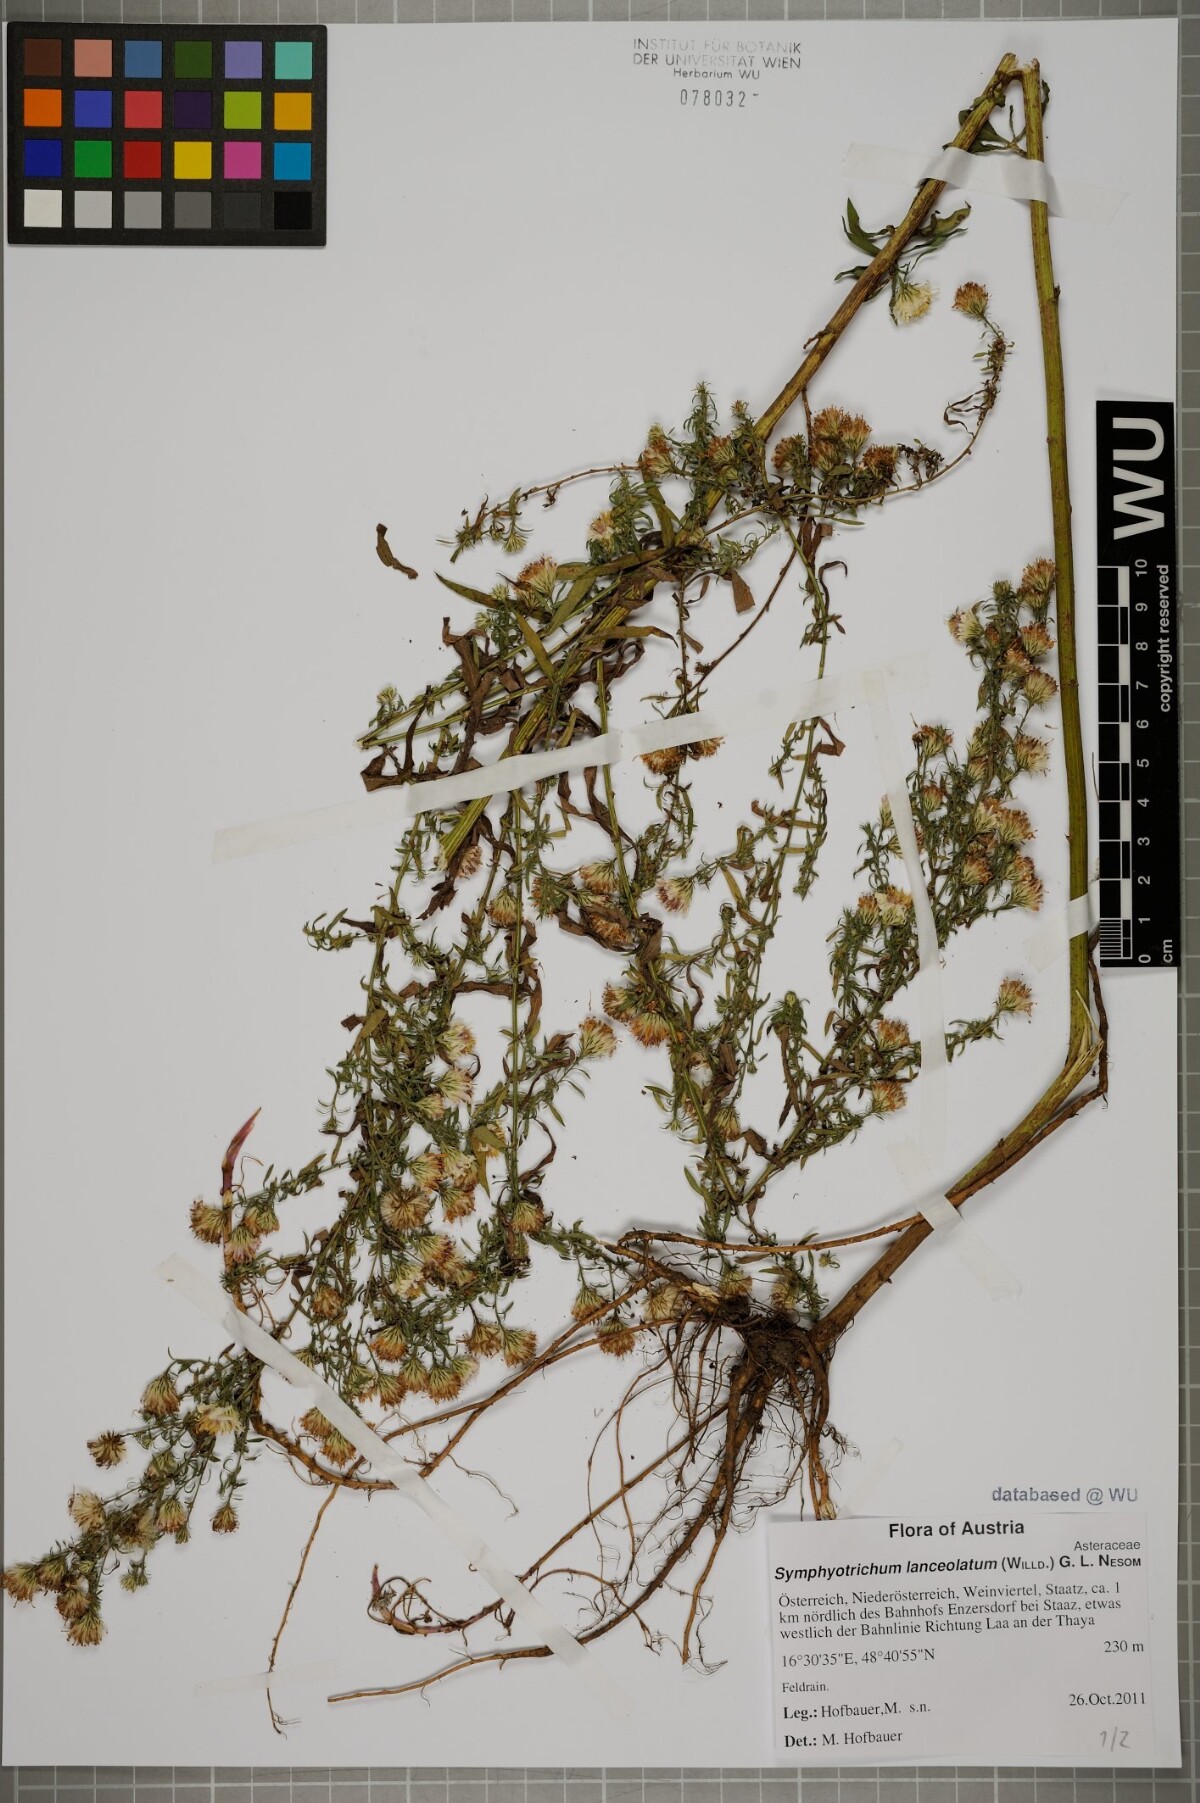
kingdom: Plantae
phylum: Tracheophyta
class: Magnoliopsida
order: Asterales
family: Asteraceae
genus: Symphyotrichum
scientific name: Symphyotrichum lanceolatum
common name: Panicled aster
